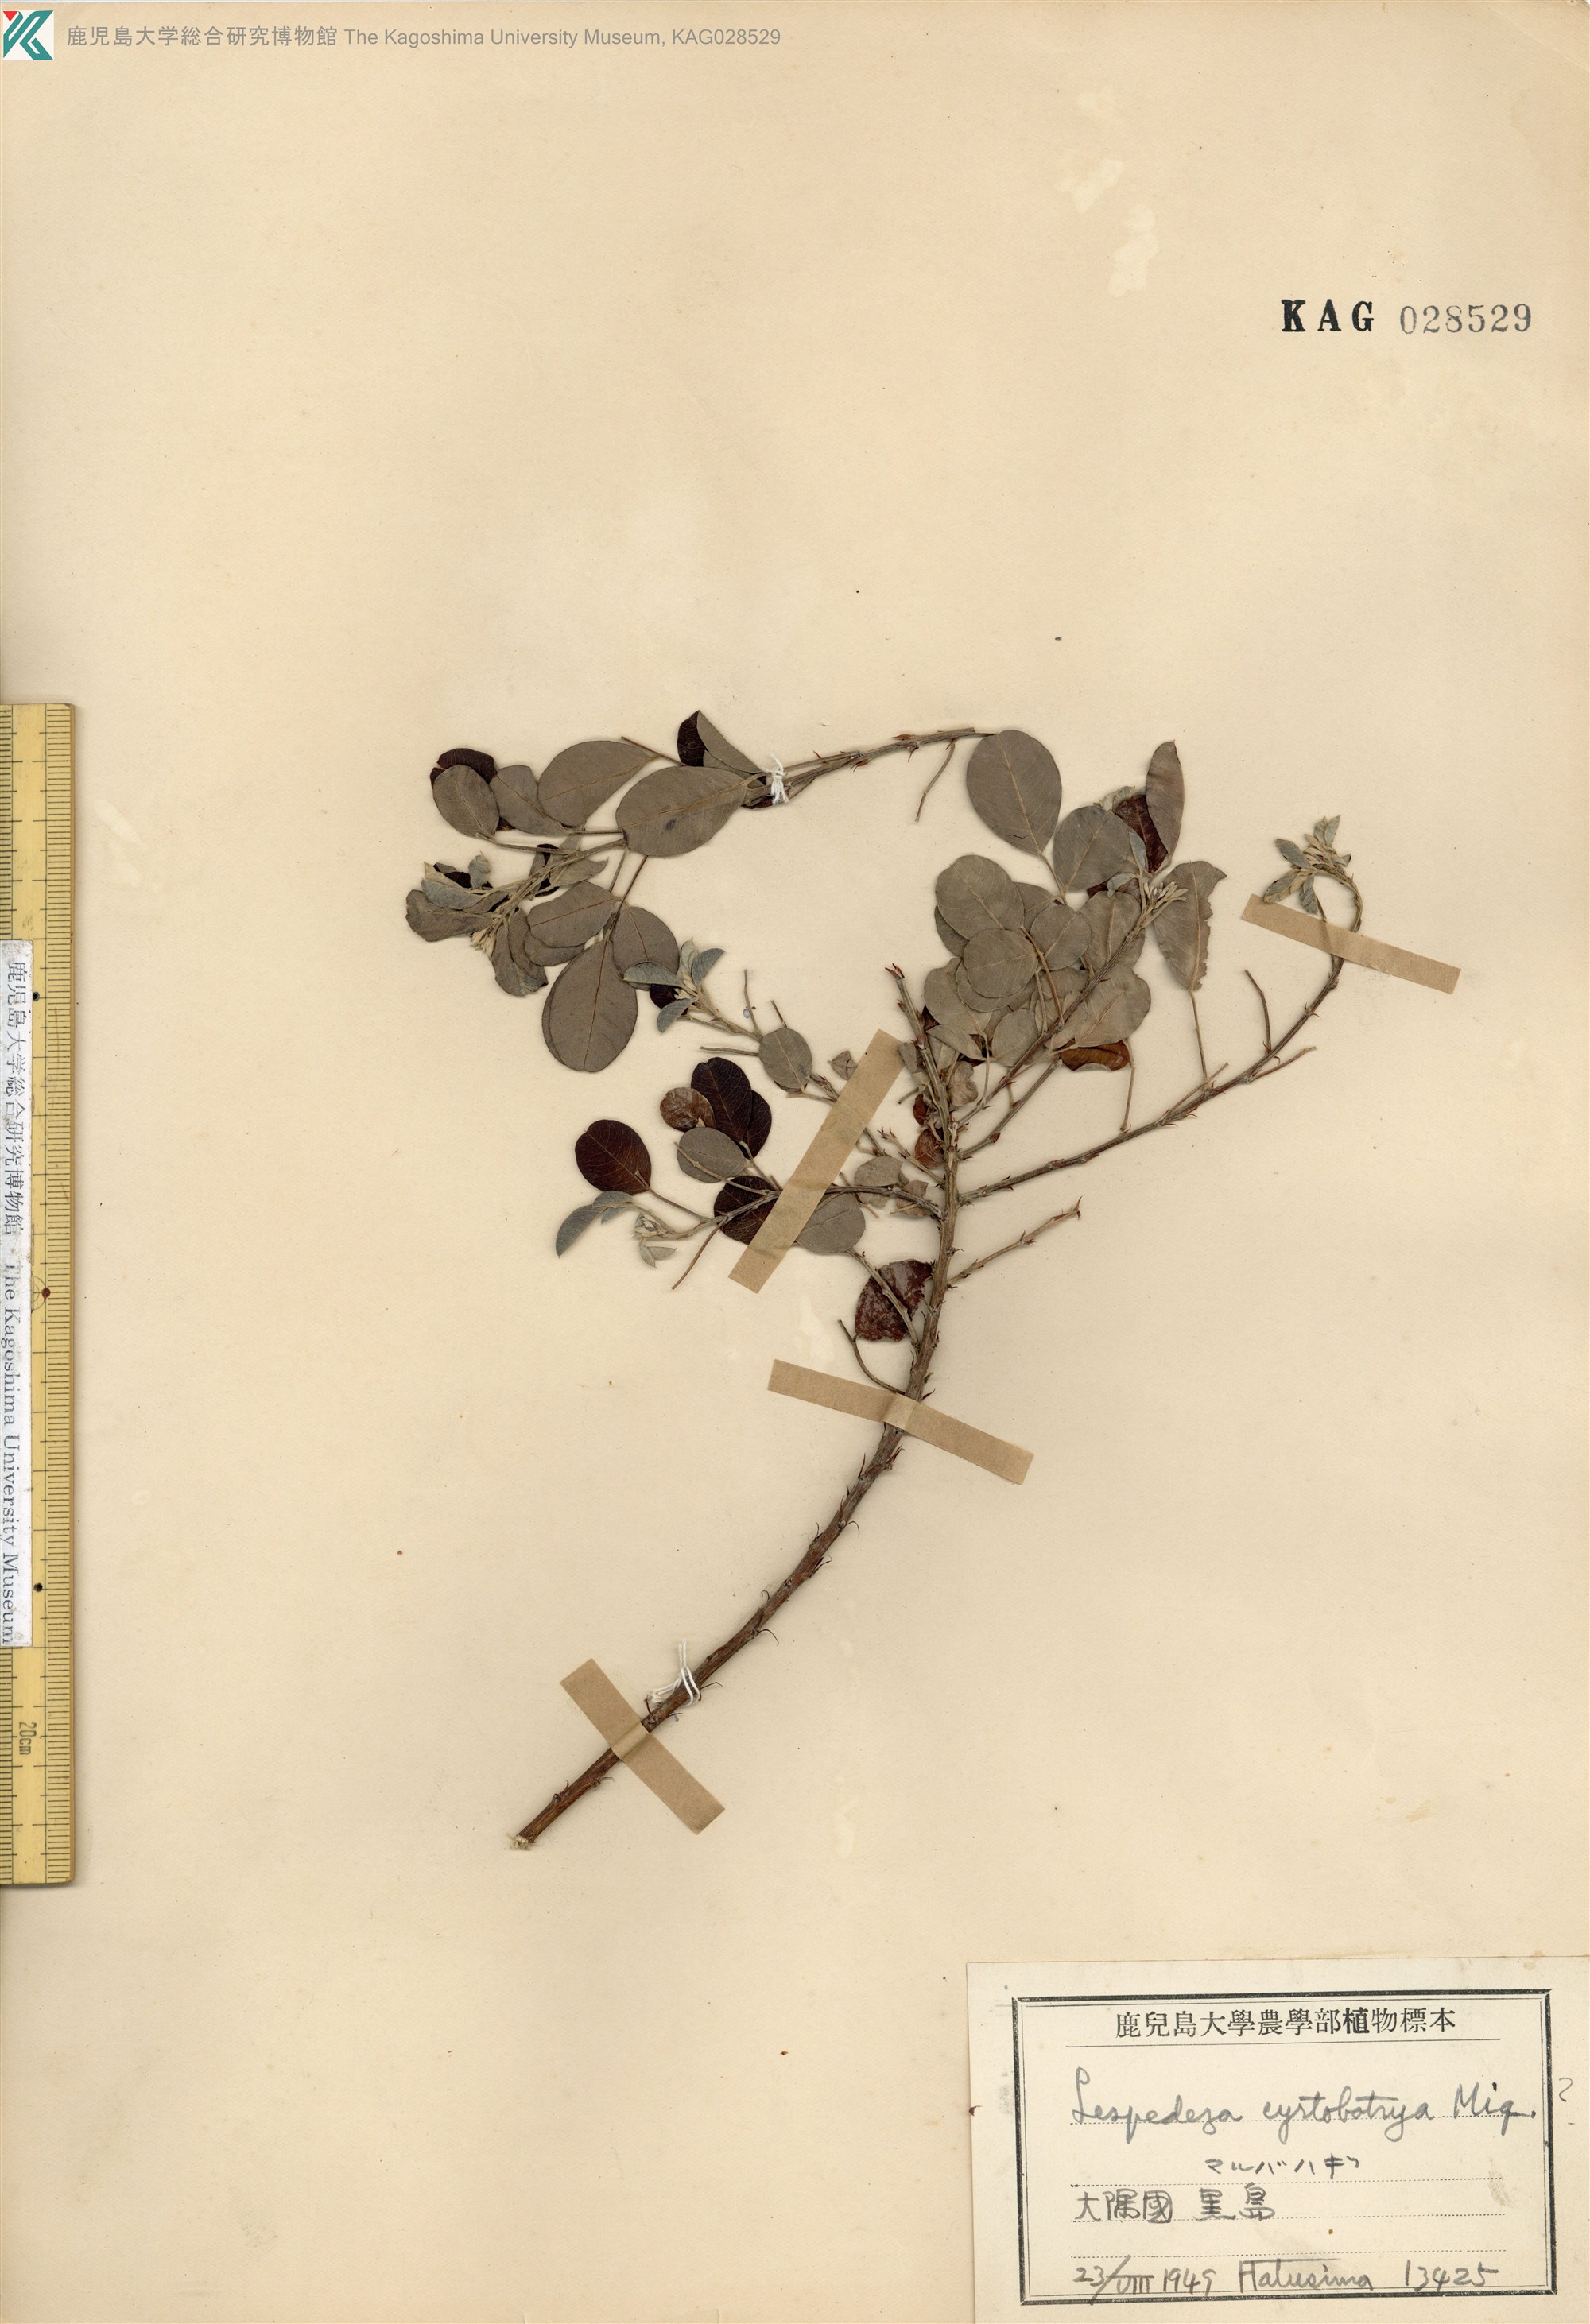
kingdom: Plantae
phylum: Tracheophyta
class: Magnoliopsida
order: Fabales
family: Fabaceae
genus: Lespedeza
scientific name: Lespedeza thunbergii
